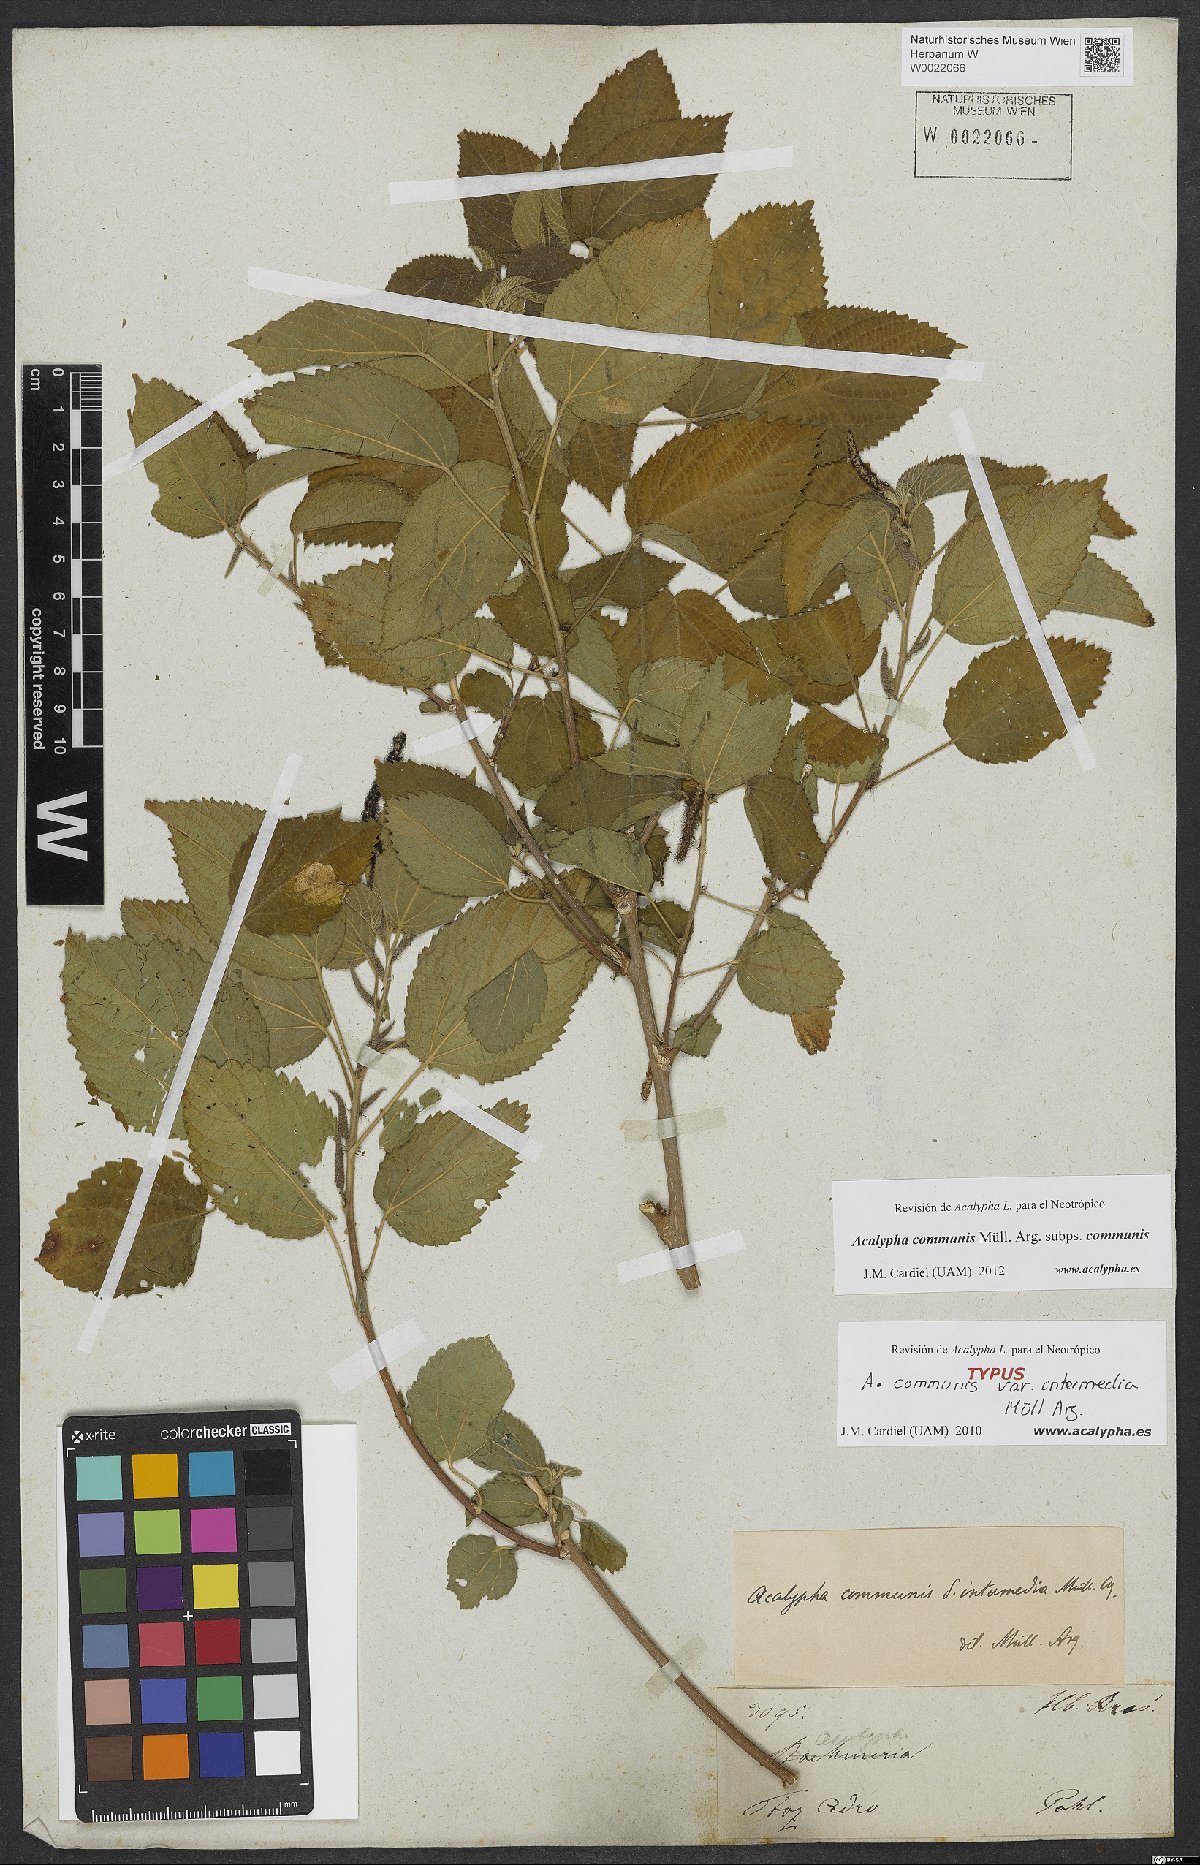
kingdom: Plantae
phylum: Tracheophyta
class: Magnoliopsida
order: Malpighiales
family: Euphorbiaceae
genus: Acalypha
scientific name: Acalypha communis
